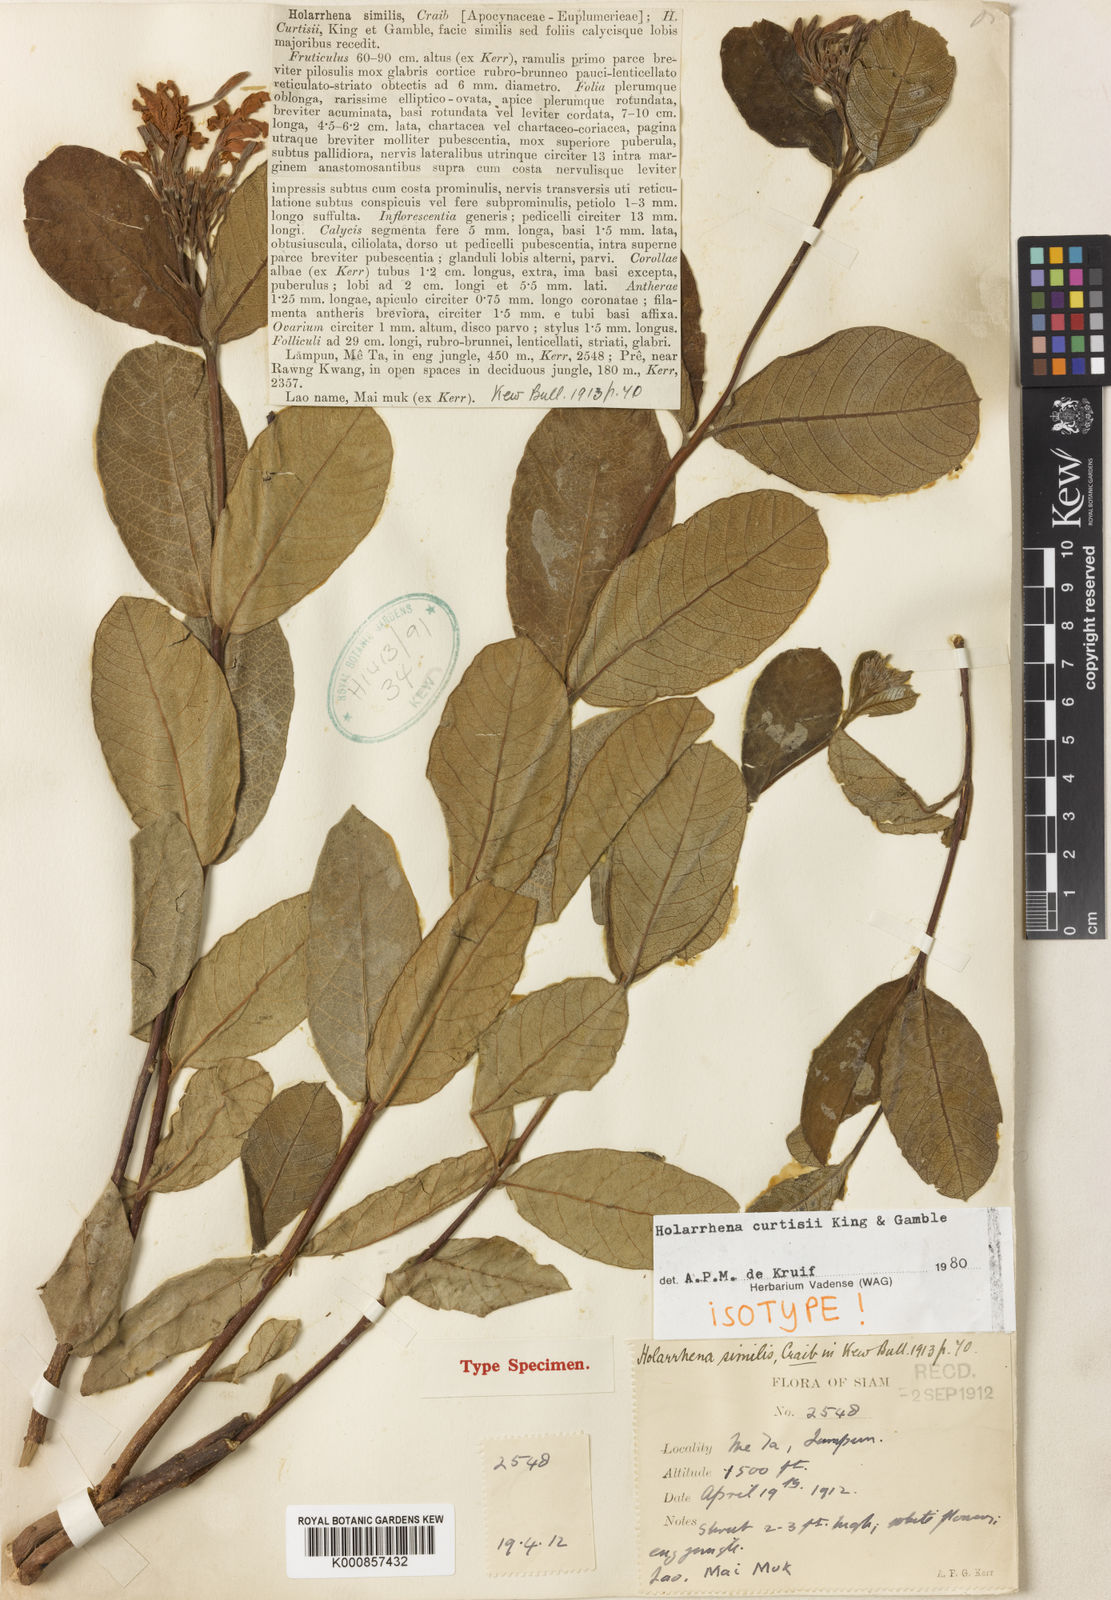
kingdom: Plantae
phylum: Tracheophyta
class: Magnoliopsida
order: Gentianales
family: Apocynaceae
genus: Holarrhena
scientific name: Holarrhena curtisii
